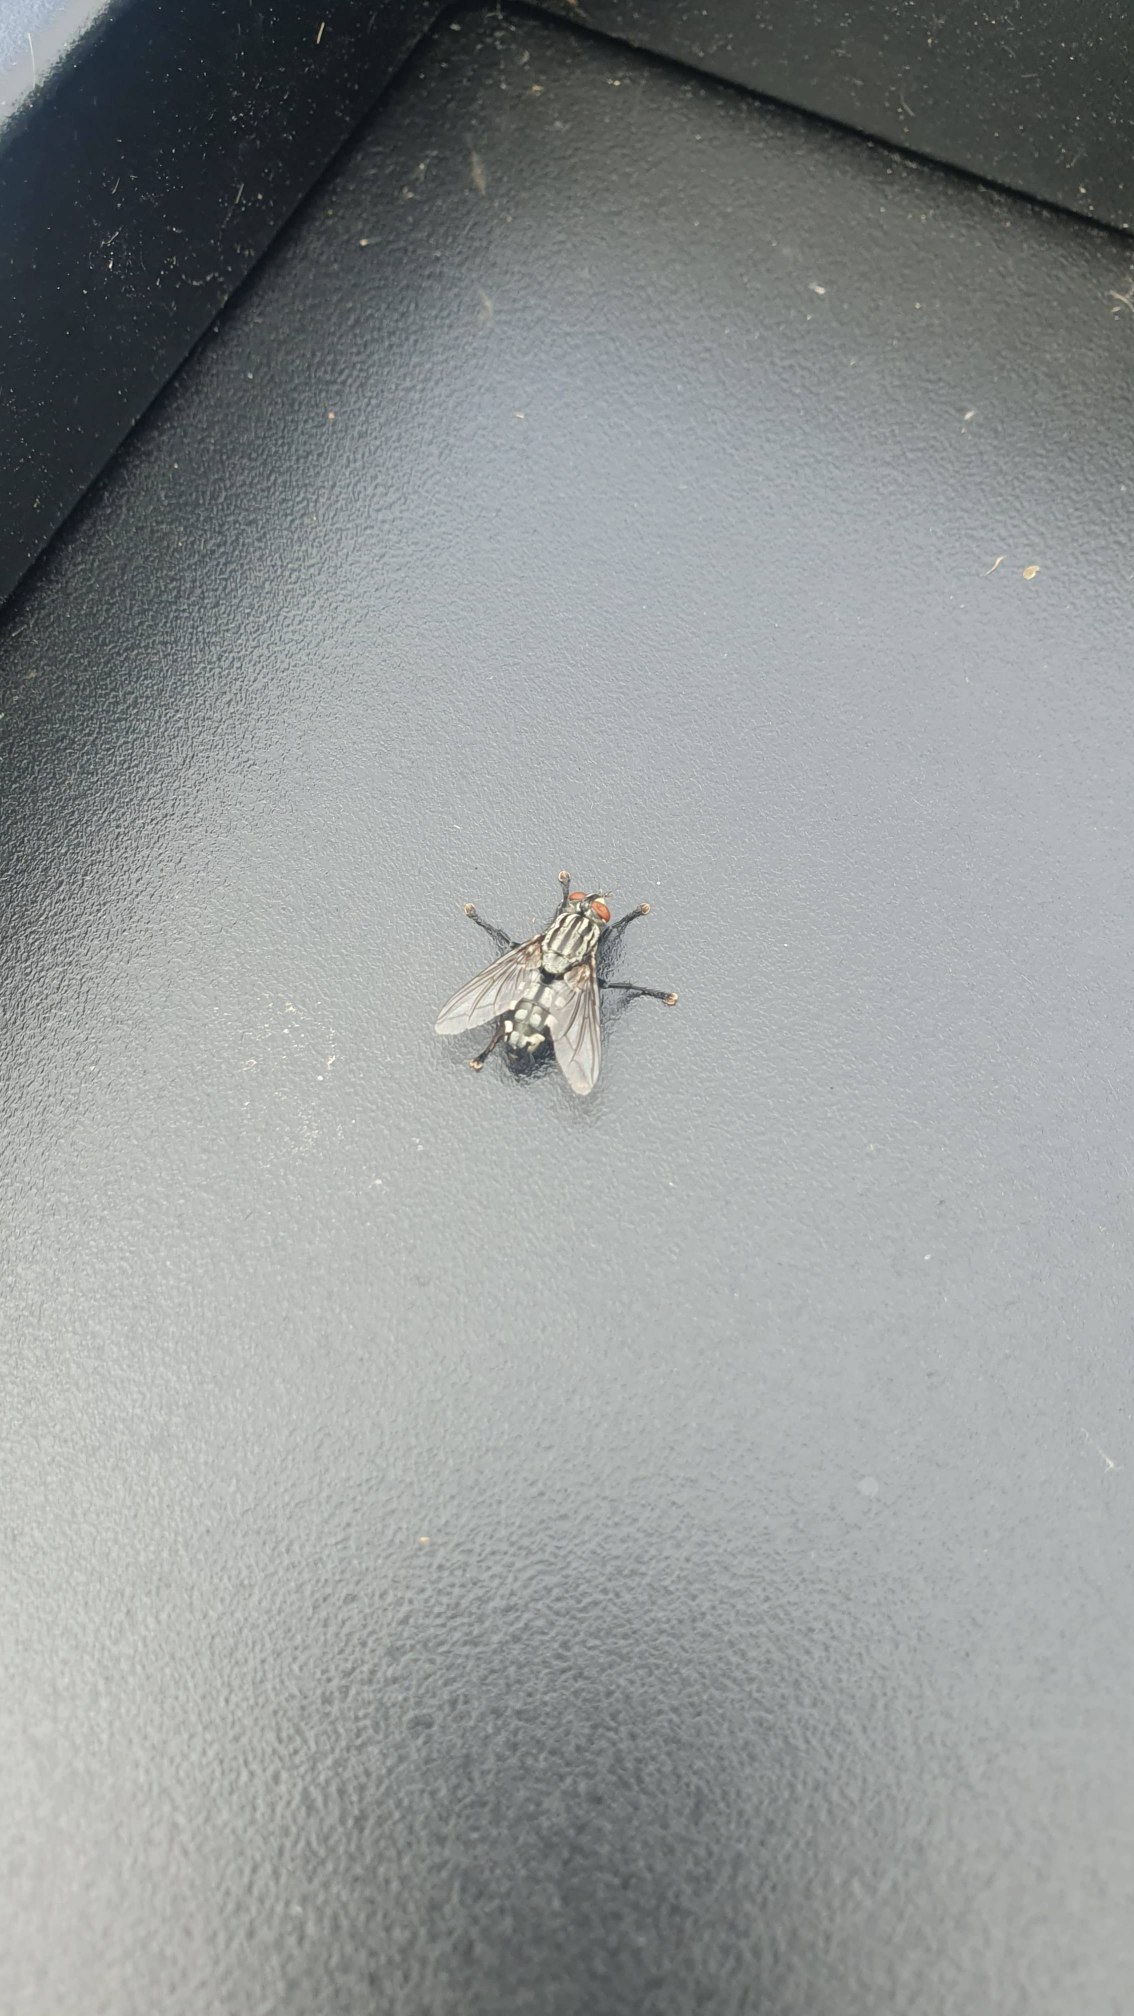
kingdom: Animalia
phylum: Arthropoda
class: Insecta
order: Diptera
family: Sarcophagidae
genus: Sarcophaga
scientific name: Sarcophaga
